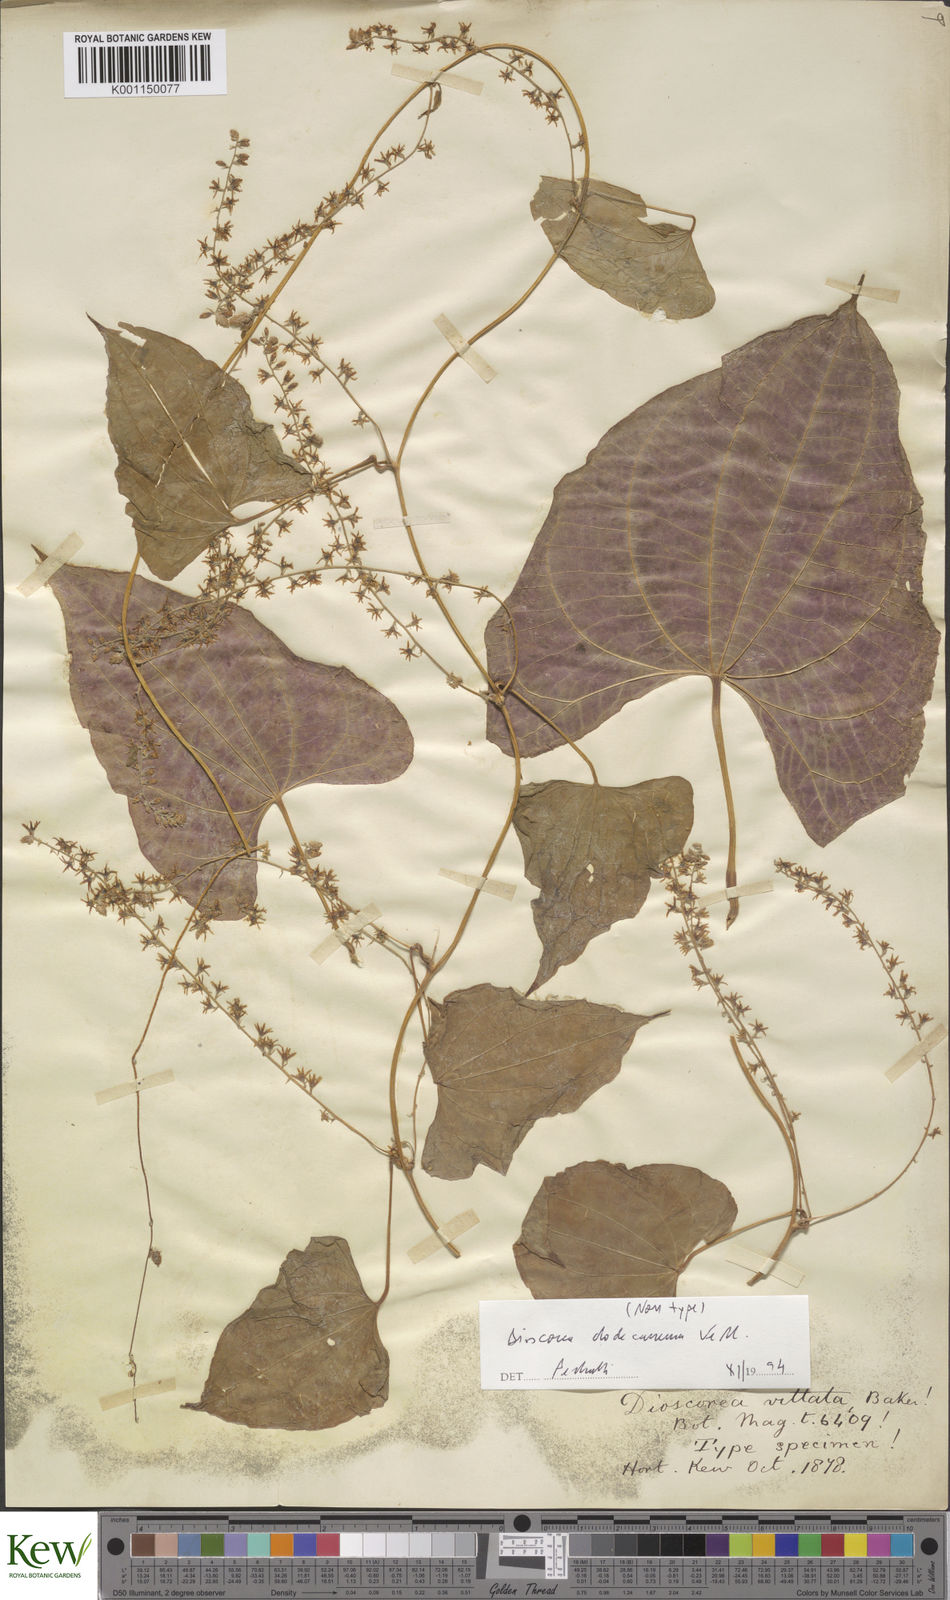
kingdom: Plantae
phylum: Tracheophyta
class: Liliopsida
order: Dioscoreales
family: Dioscoreaceae
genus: Dioscorea
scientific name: Dioscorea dodecaneura
